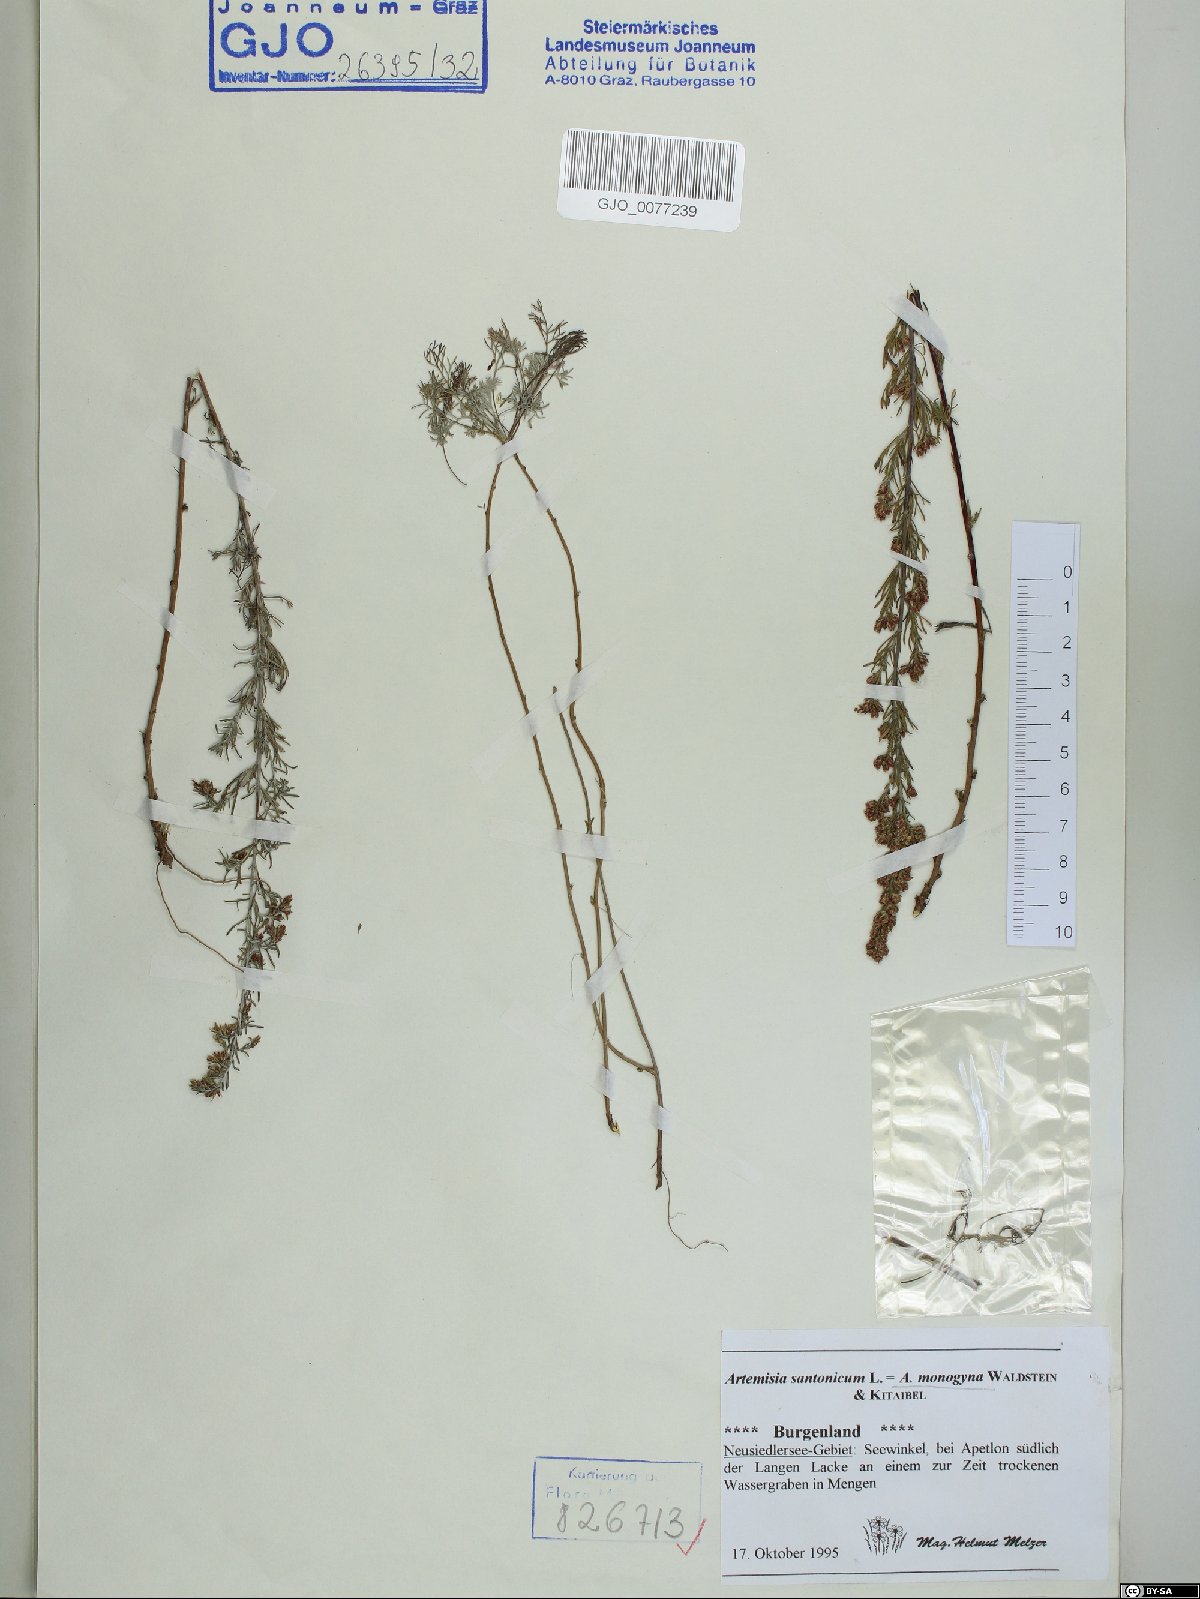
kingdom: Plantae
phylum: Tracheophyta
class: Magnoliopsida
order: Asterales
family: Asteraceae
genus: Artemisia
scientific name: Artemisia santonicum
